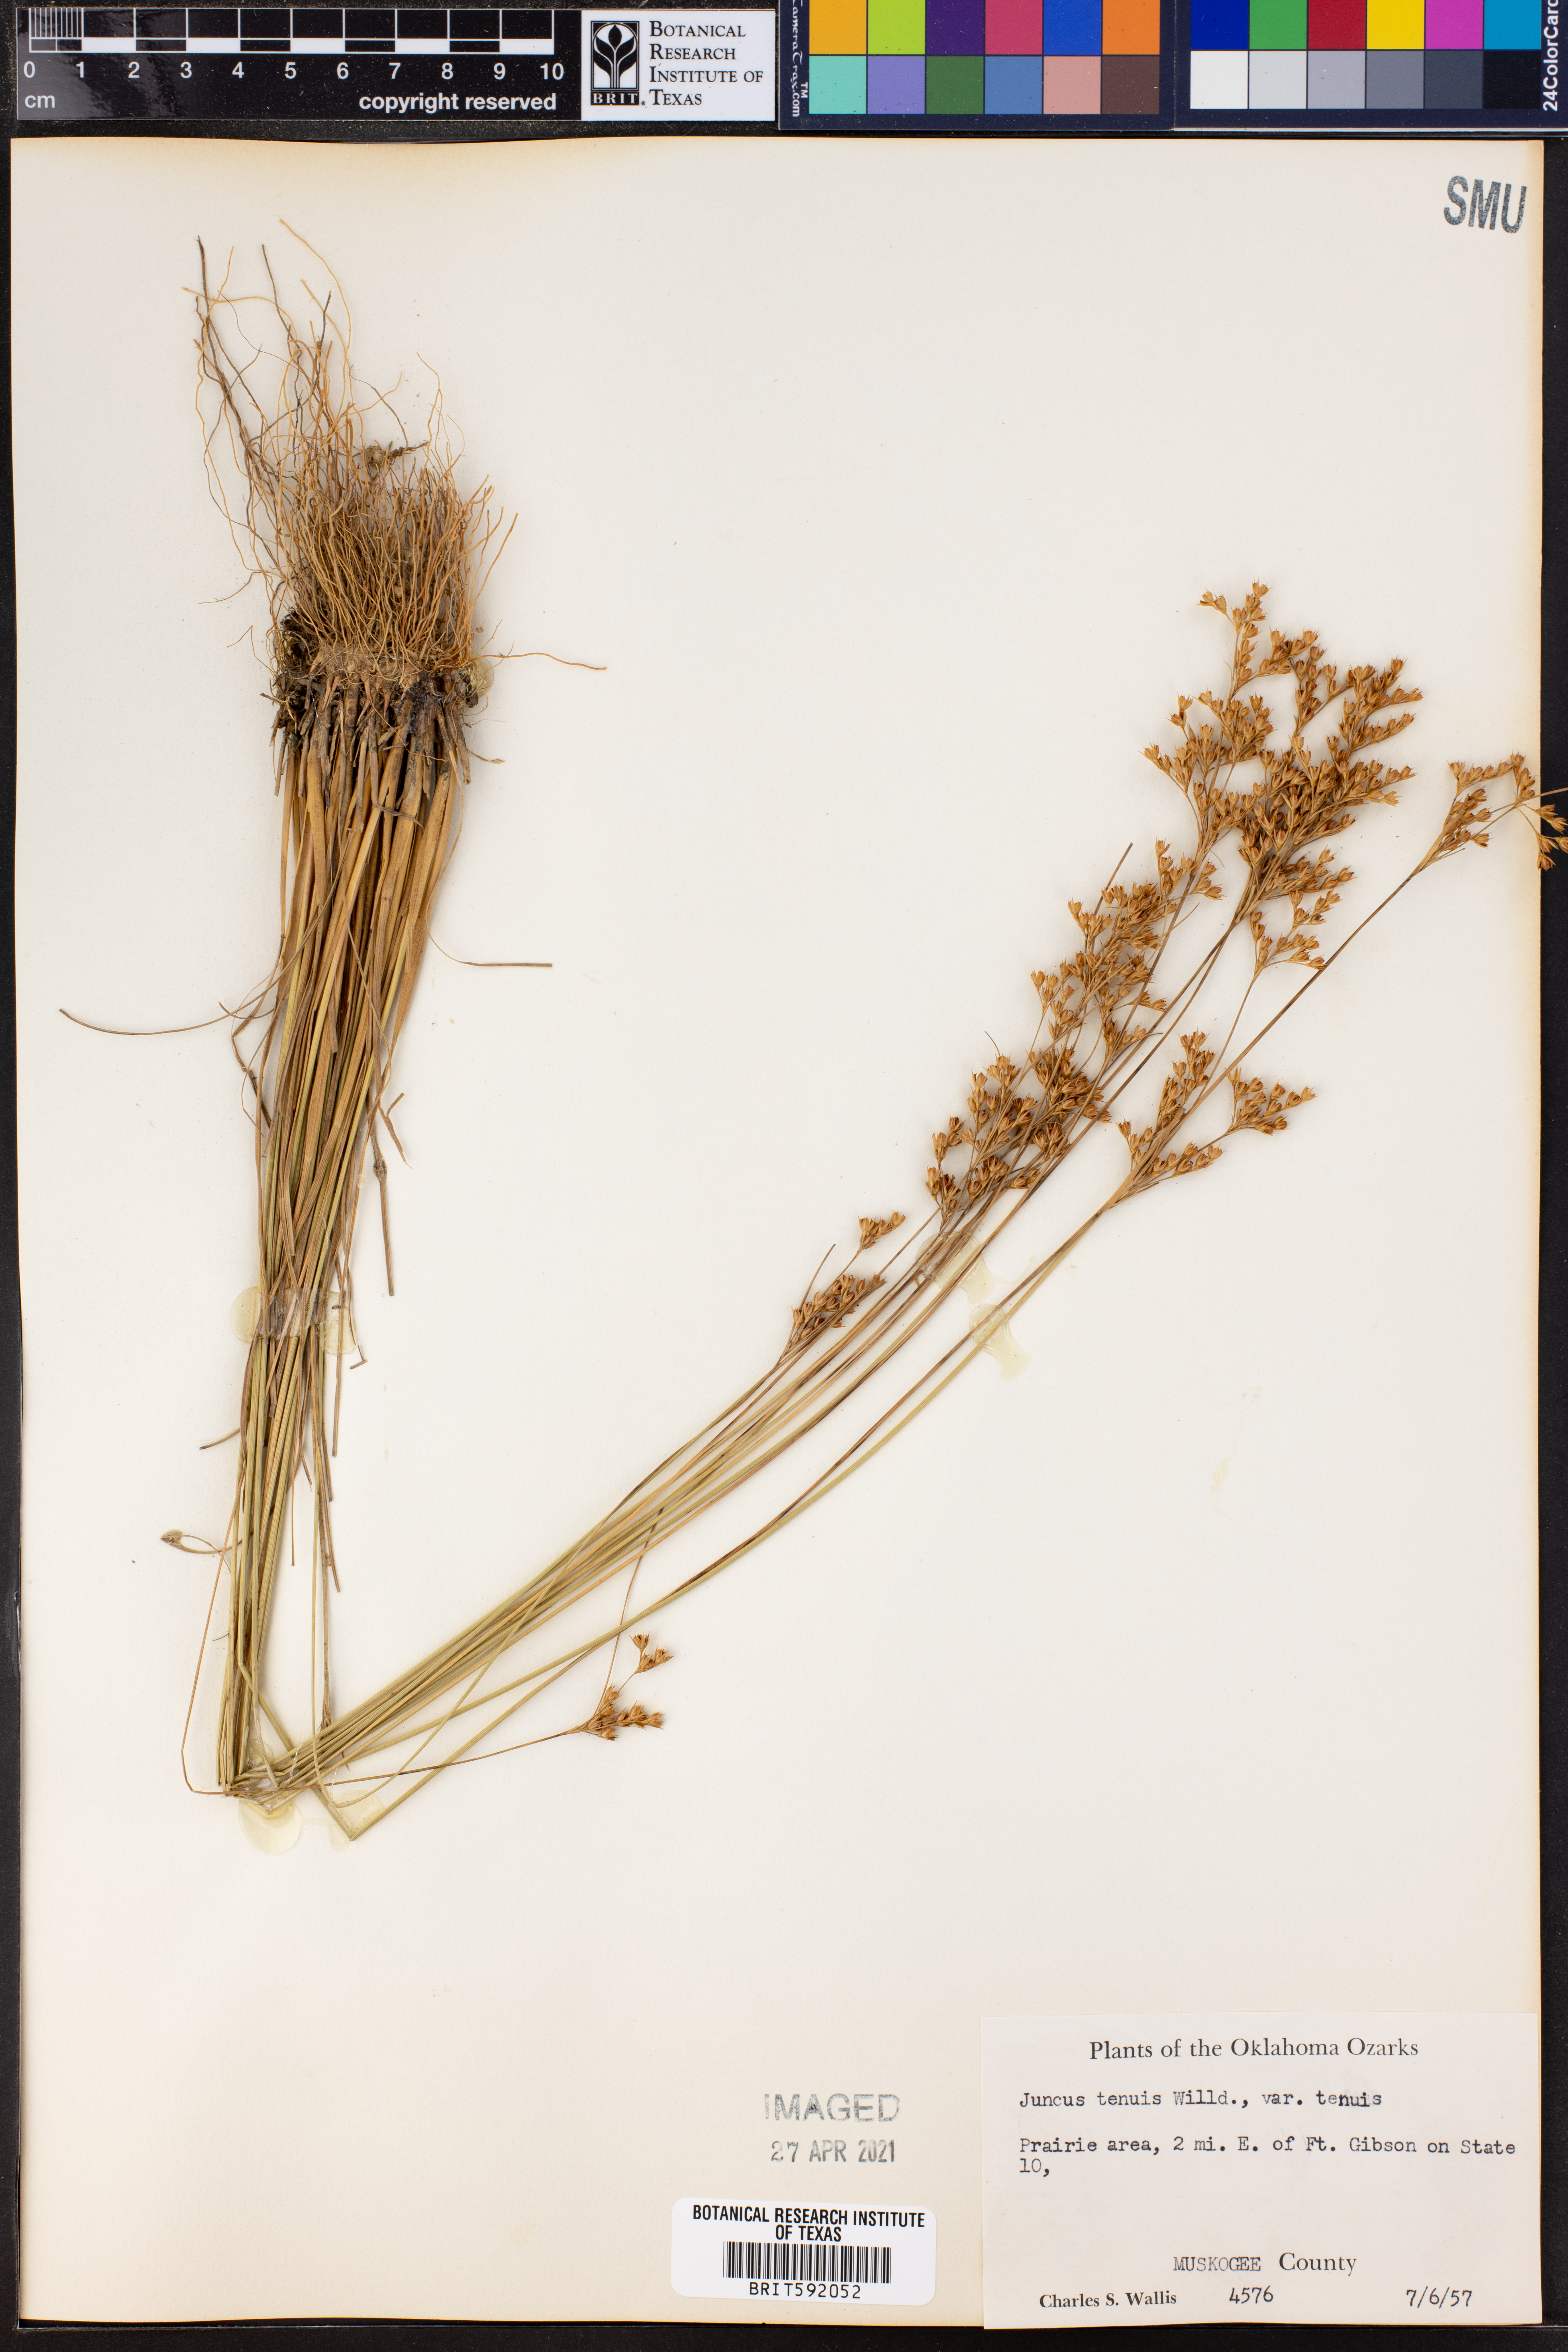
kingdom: Plantae
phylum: Tracheophyta
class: Liliopsida
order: Poales
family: Juncaceae
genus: Juncus
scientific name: Juncus tenuis
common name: Slender rush
